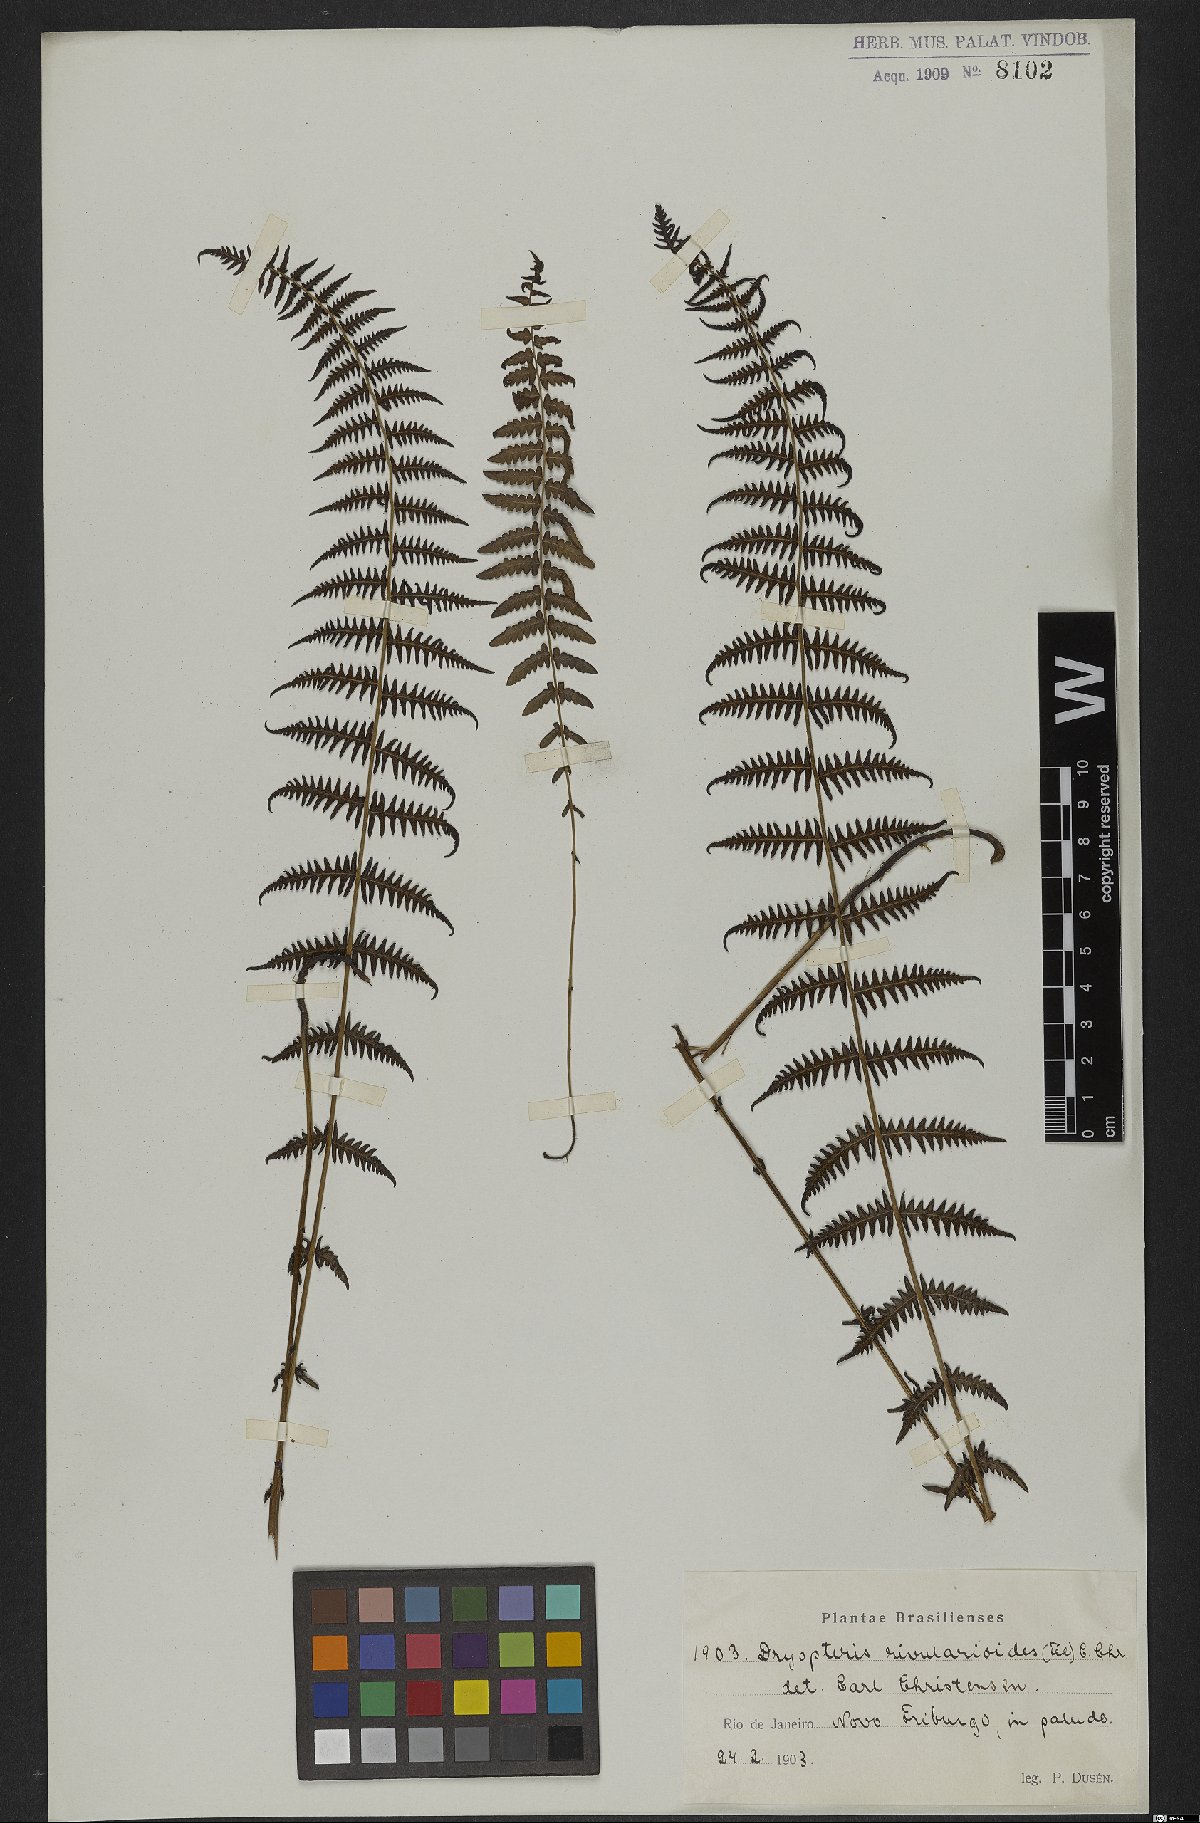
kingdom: Plantae
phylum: Tracheophyta
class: Polypodiopsida
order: Polypodiales
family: Thelypteridaceae
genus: Amauropelta
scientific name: Amauropelta rivularioides
